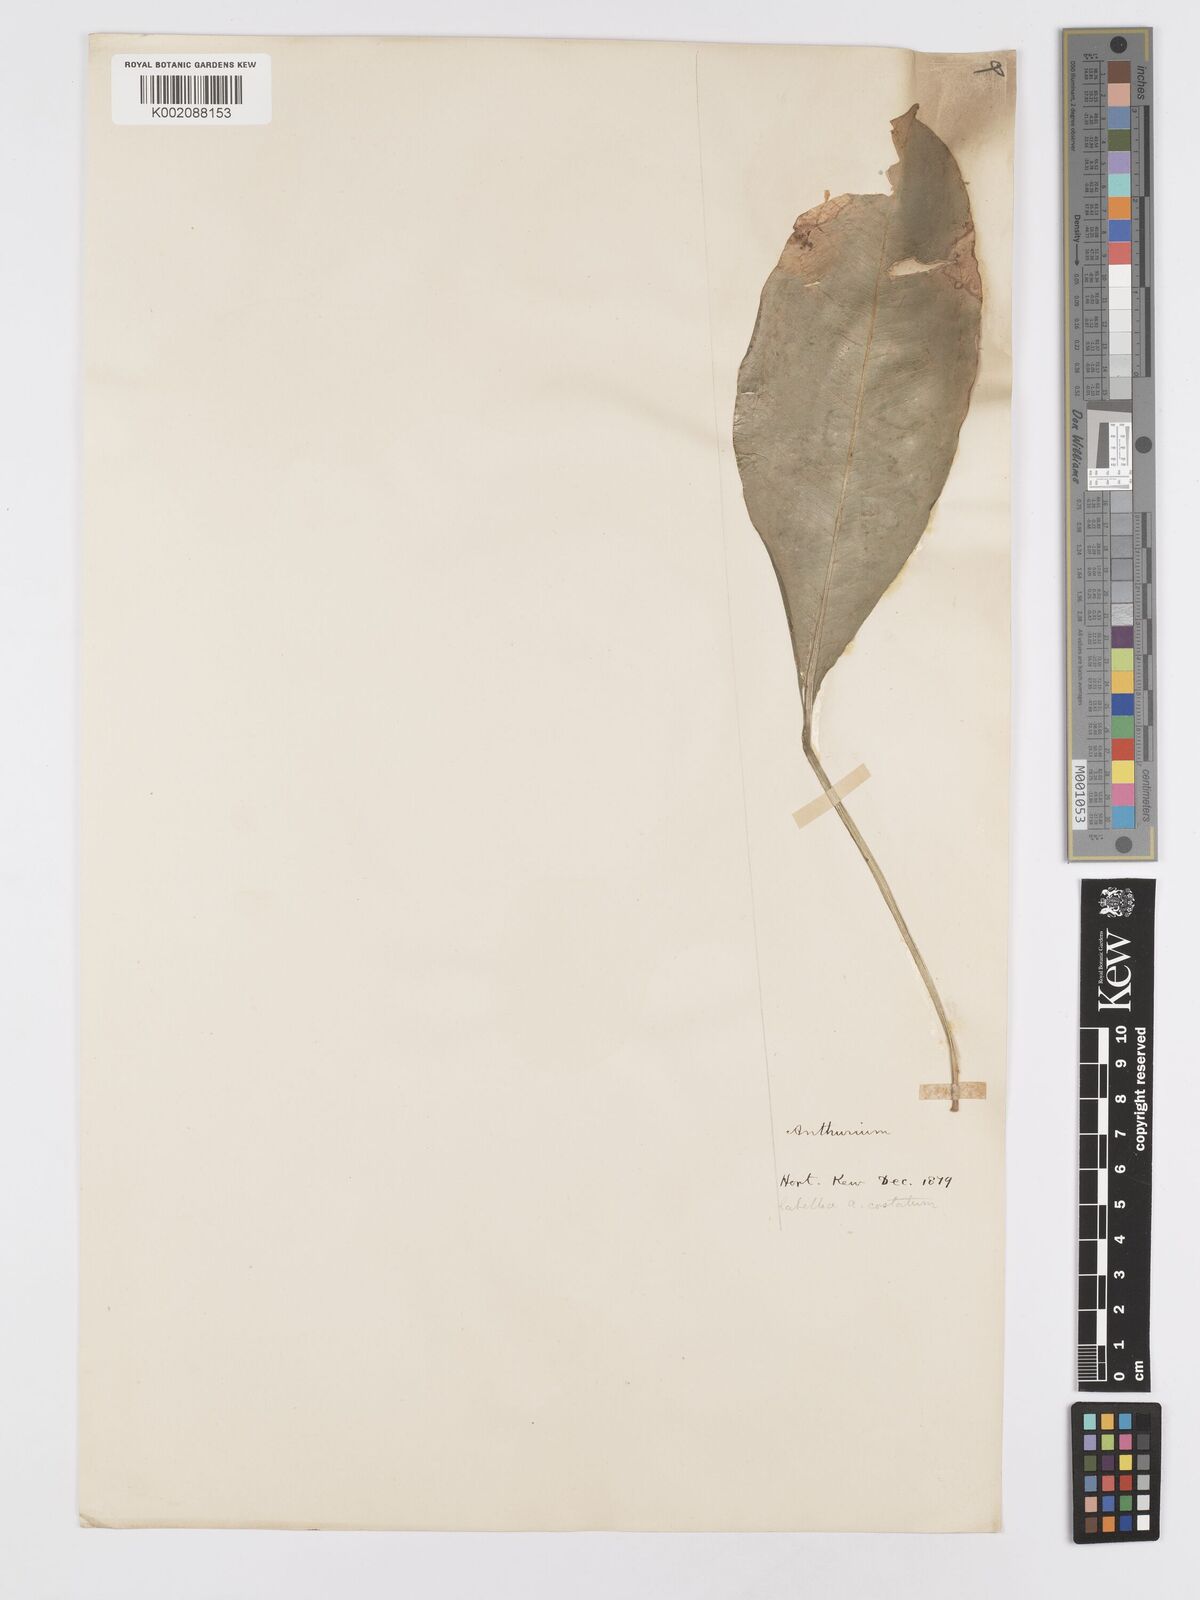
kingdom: Plantae
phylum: Tracheophyta
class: Liliopsida
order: Alismatales
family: Araceae
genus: Anthurium
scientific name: Anthurium
